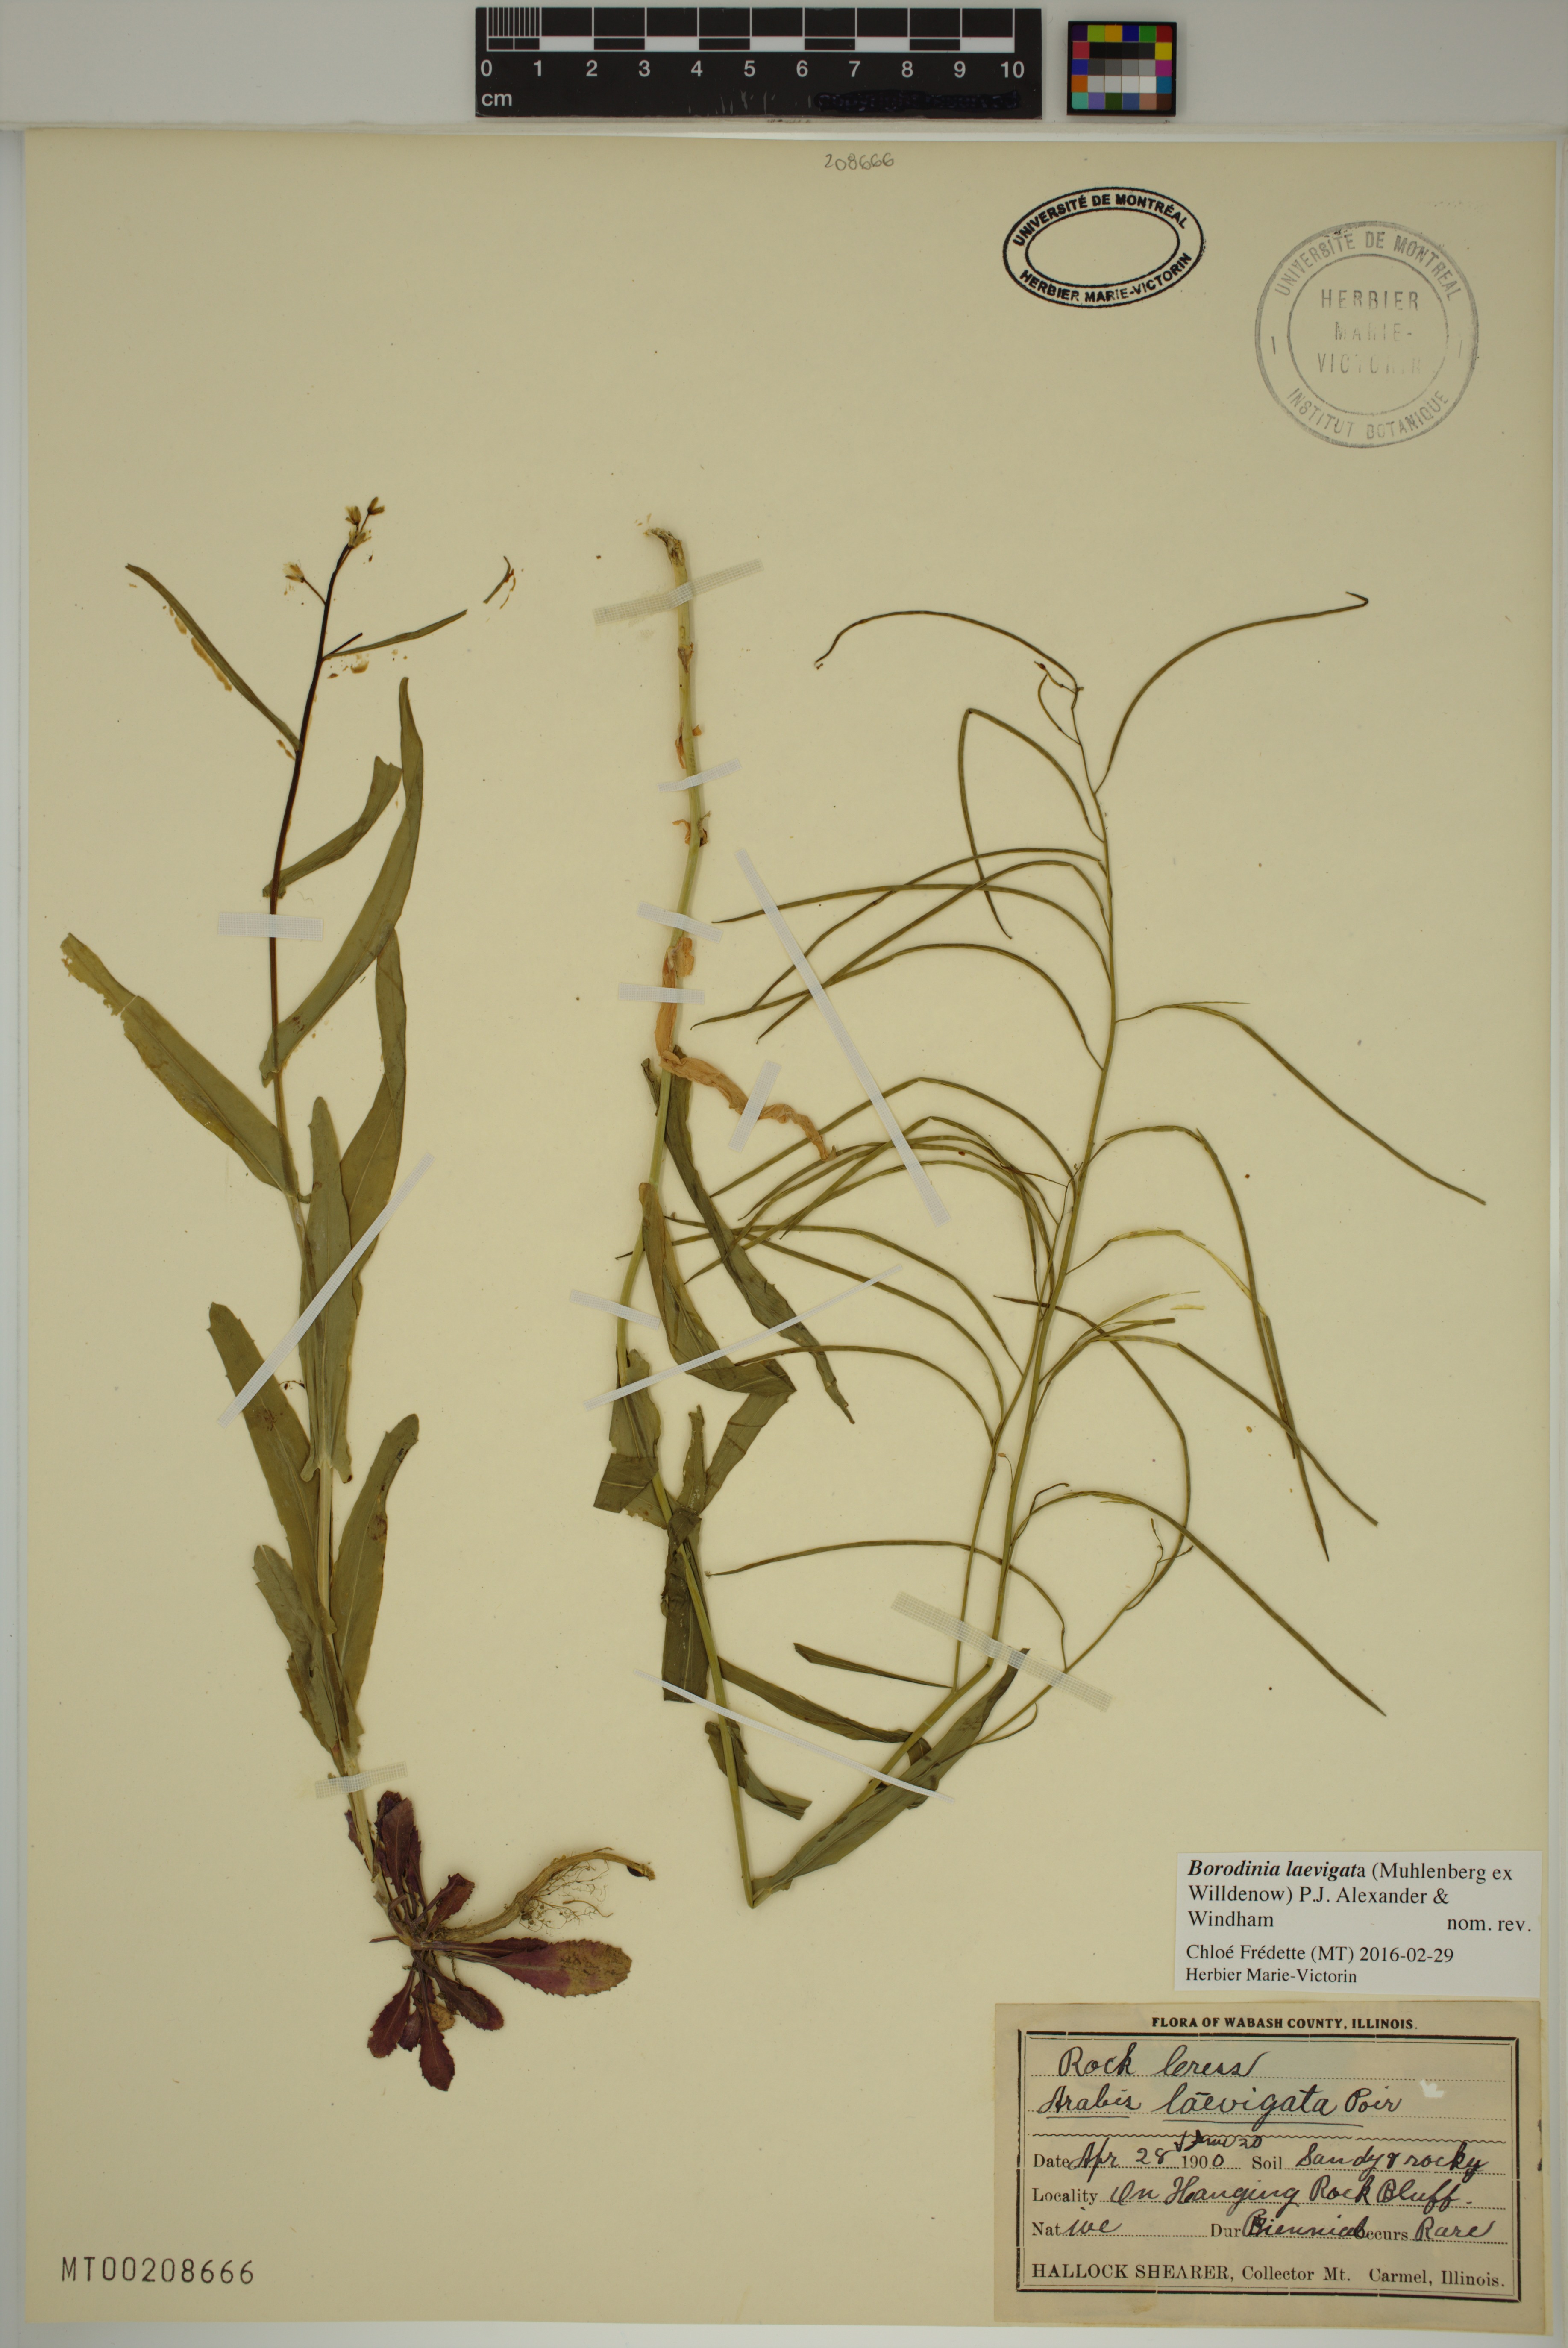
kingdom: Plantae
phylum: Tracheophyta
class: Magnoliopsida
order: Brassicales
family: Brassicaceae
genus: Borodinia
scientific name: Borodinia laevigata
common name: Smooth rockcress
